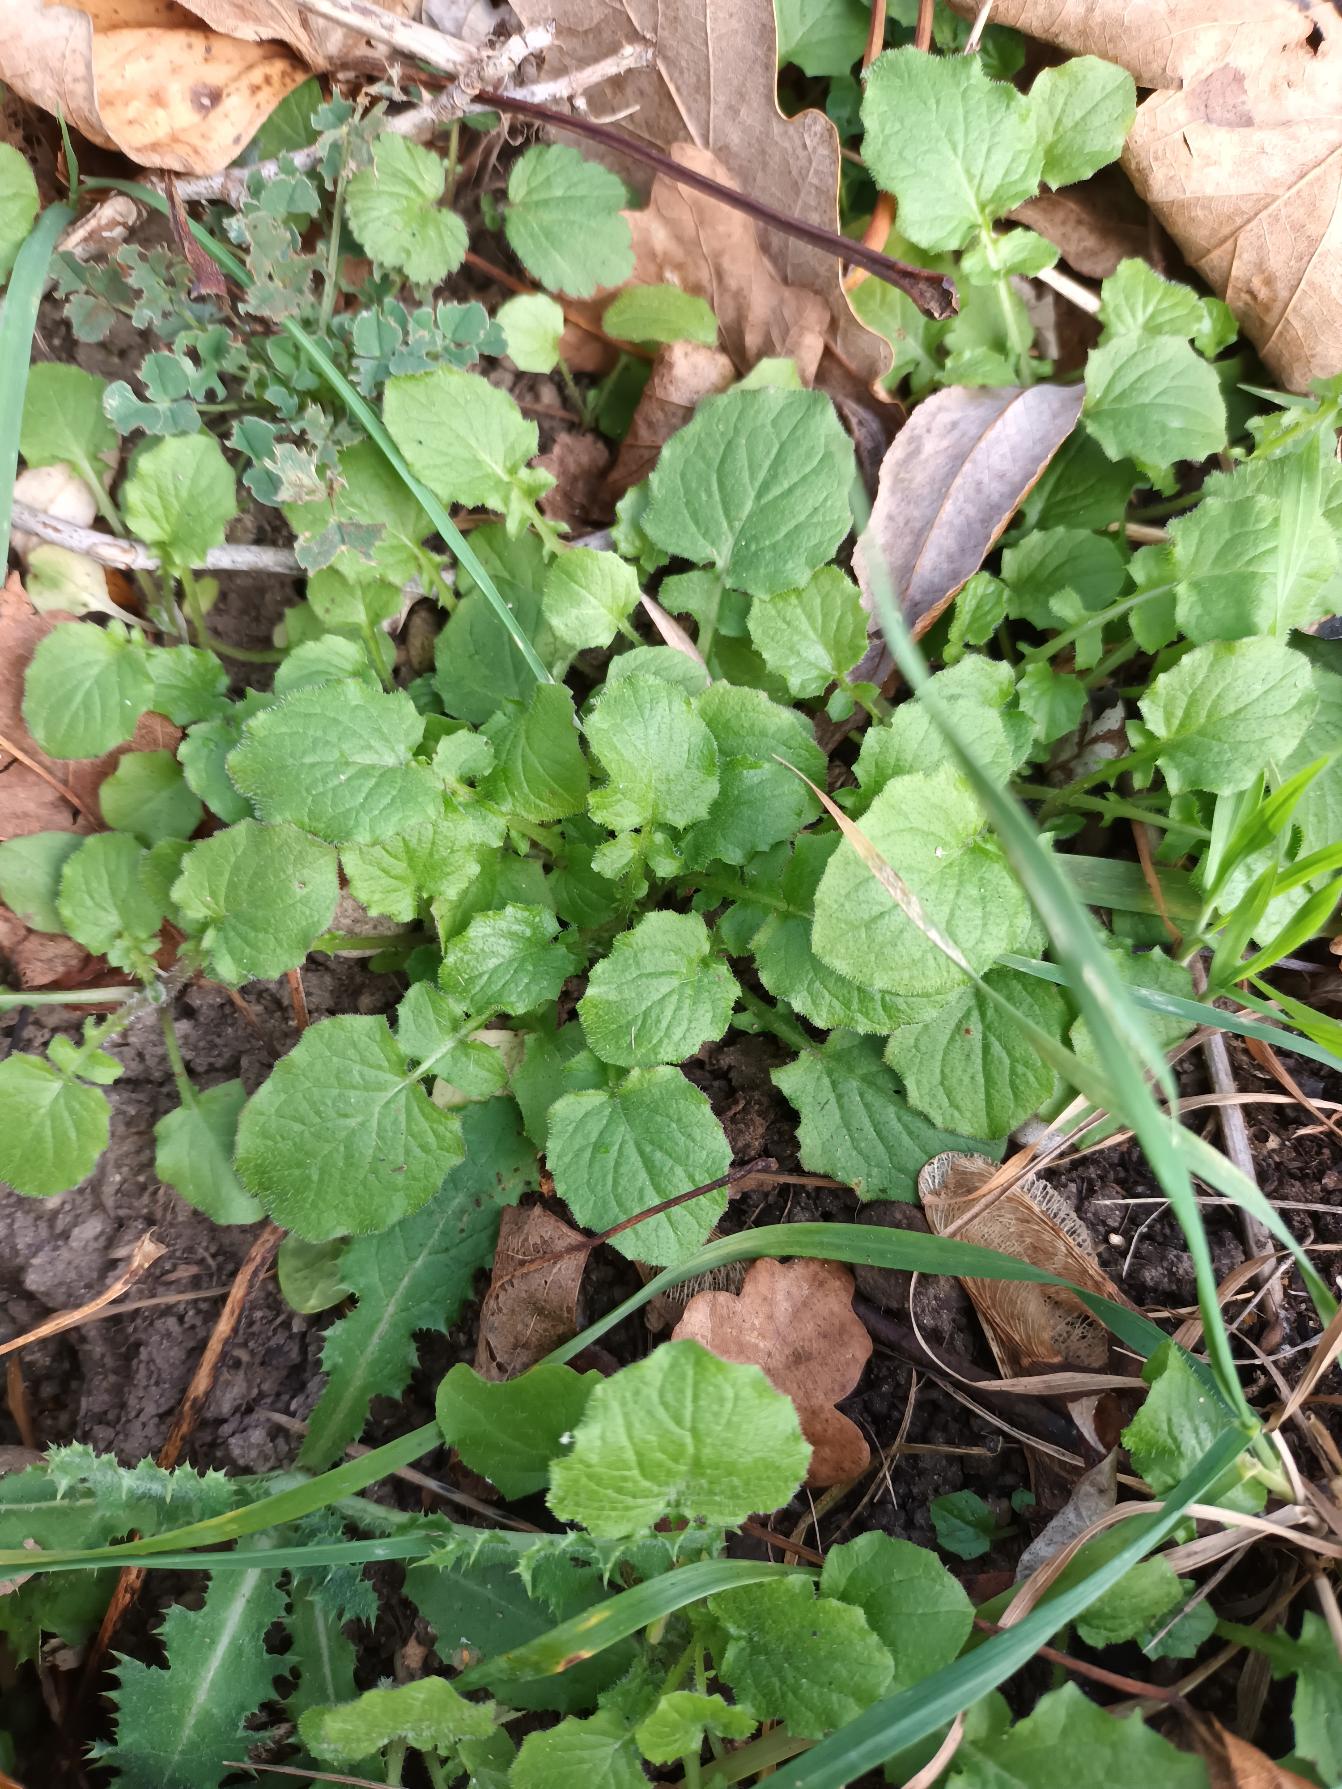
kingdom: Plantae
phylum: Tracheophyta
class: Magnoliopsida
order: Asterales
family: Asteraceae
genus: Lapsana
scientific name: Lapsana communis
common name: Haremad
